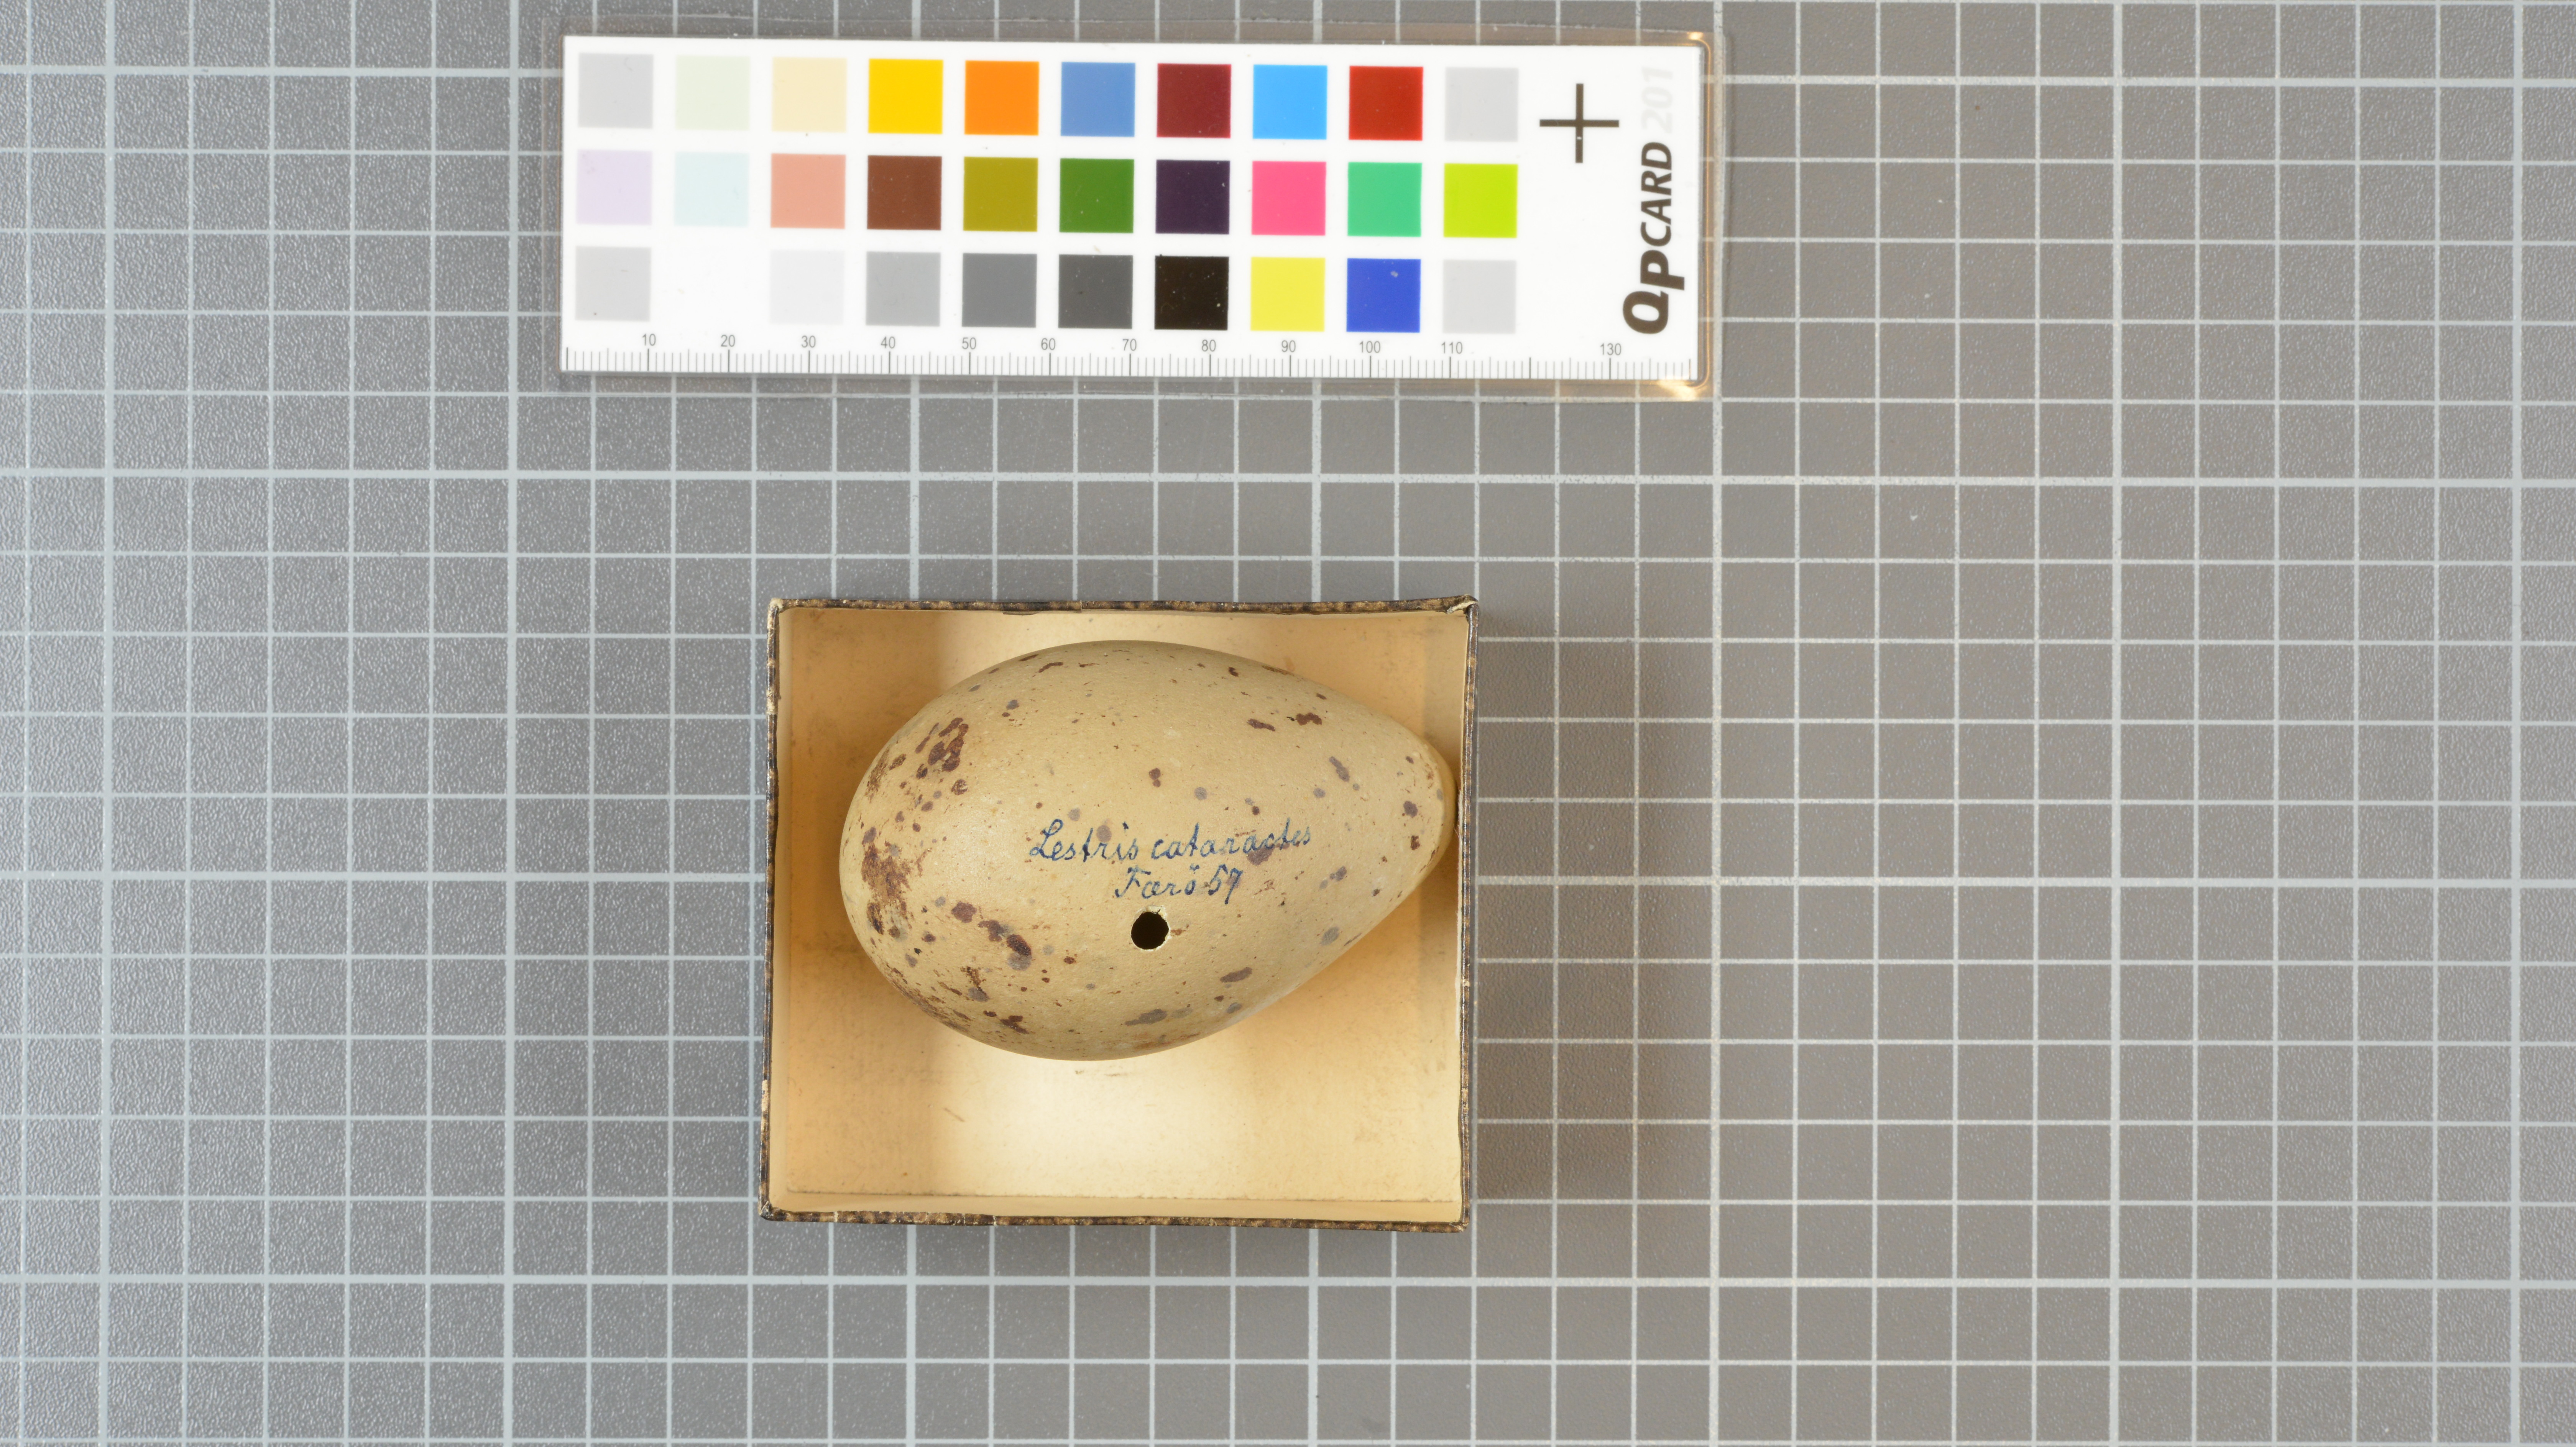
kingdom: Animalia
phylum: Chordata
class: Aves
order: Charadriiformes
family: Stercorariidae
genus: Stercorarius
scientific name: Stercorarius skua
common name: Great skua
